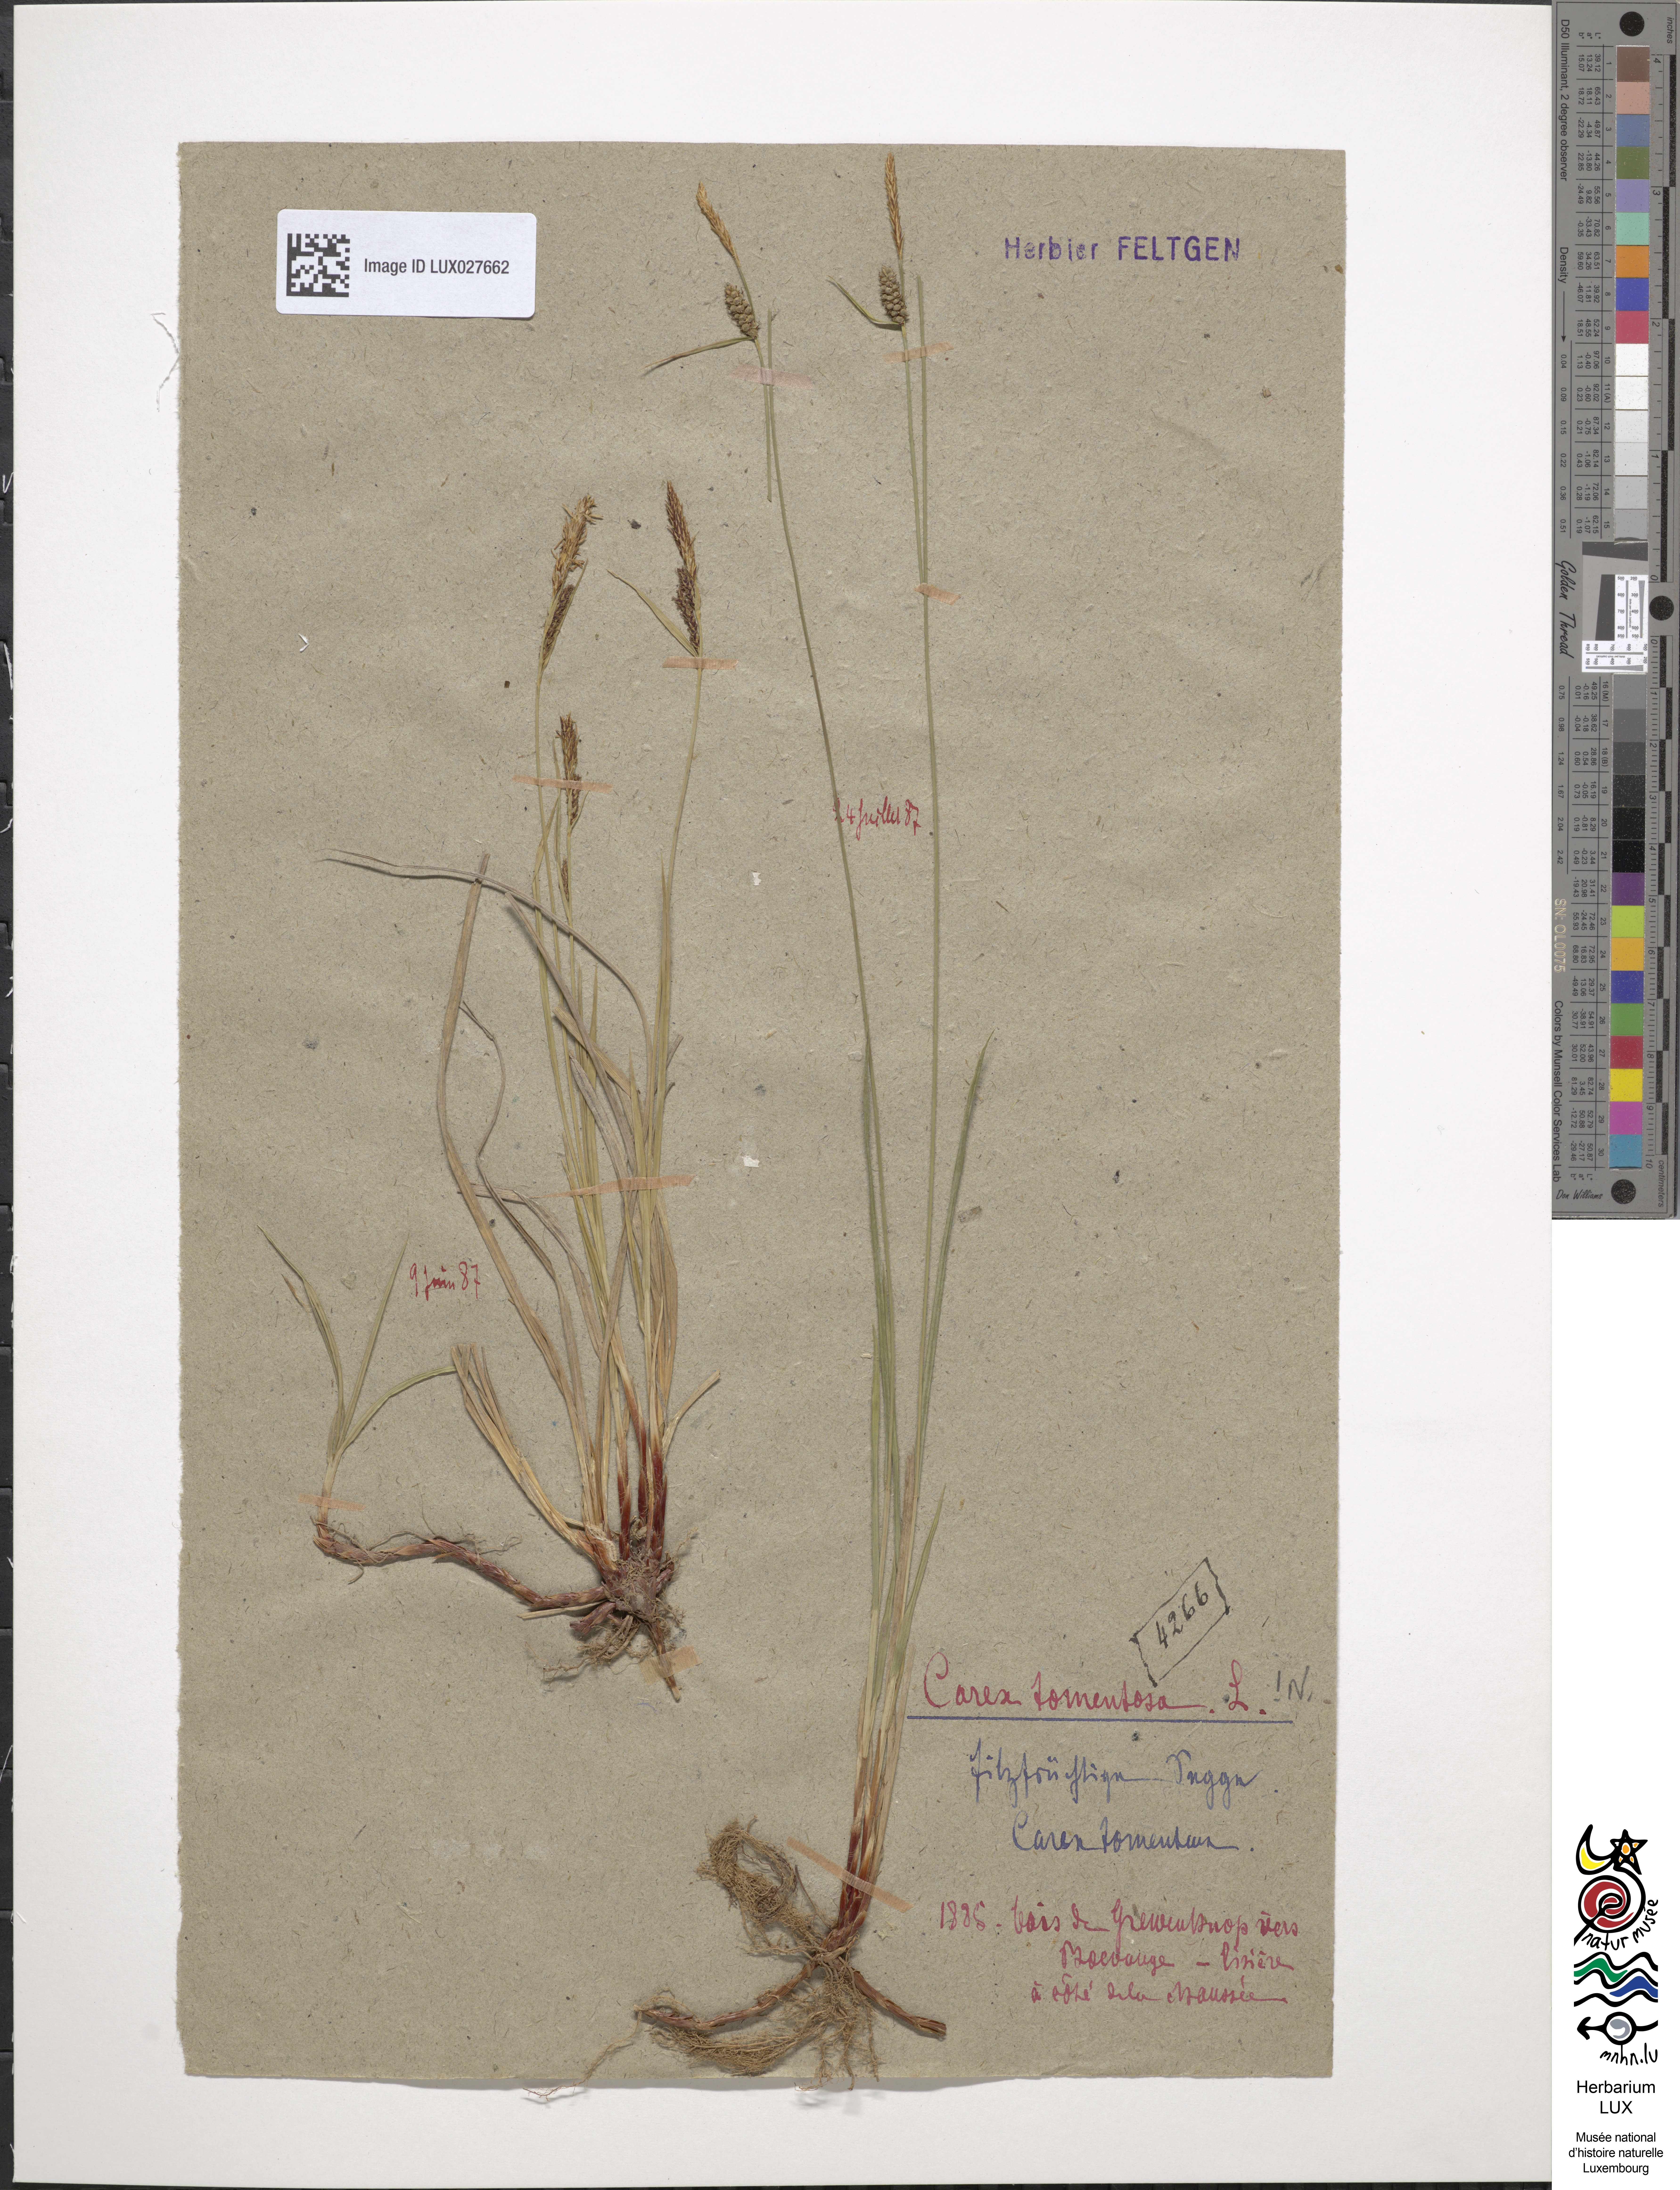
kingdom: Plantae
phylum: Tracheophyta
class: Liliopsida
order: Poales
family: Cyperaceae
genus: Carex
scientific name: Carex tomentosa
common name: Downy-fruited sedge
